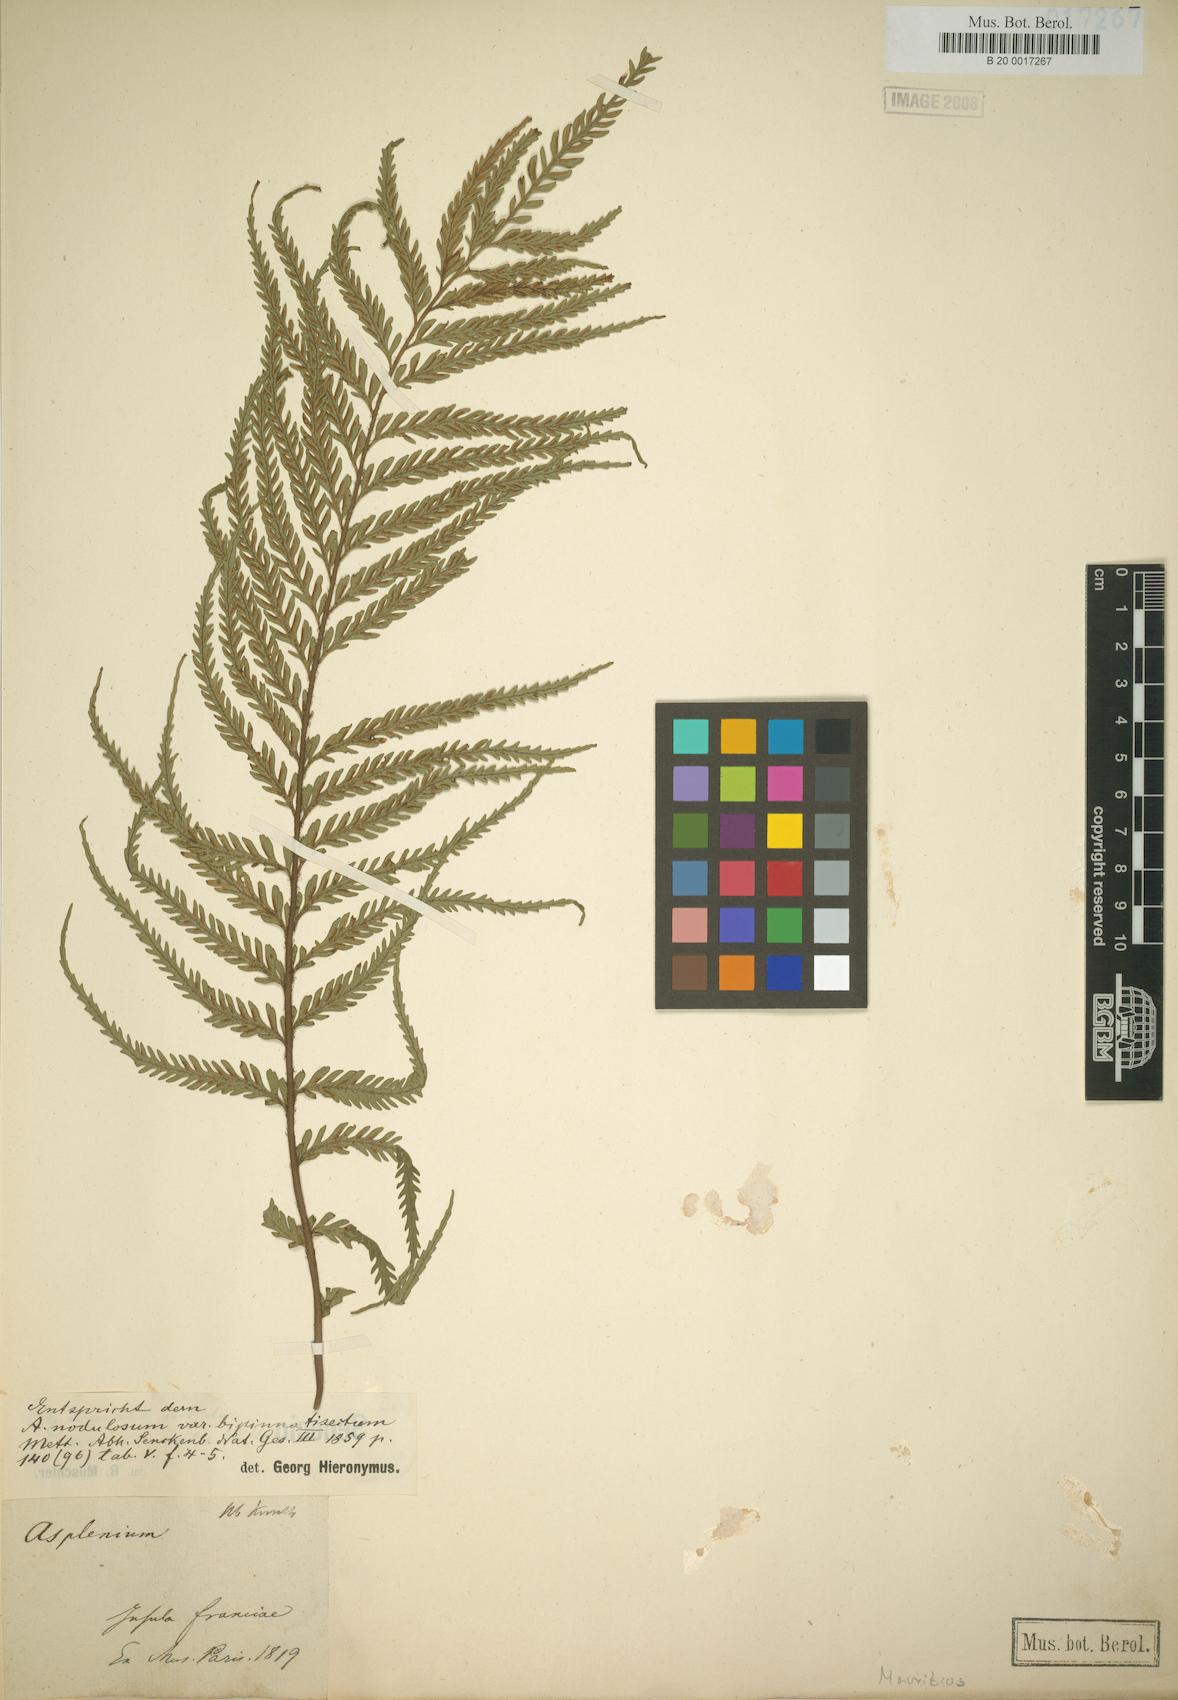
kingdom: Plantae
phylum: Tracheophyta
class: Polypodiopsida
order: Polypodiales
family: Aspleniaceae
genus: Asplenium
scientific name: Asplenium daucifolium
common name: Mauritius spleenwort
